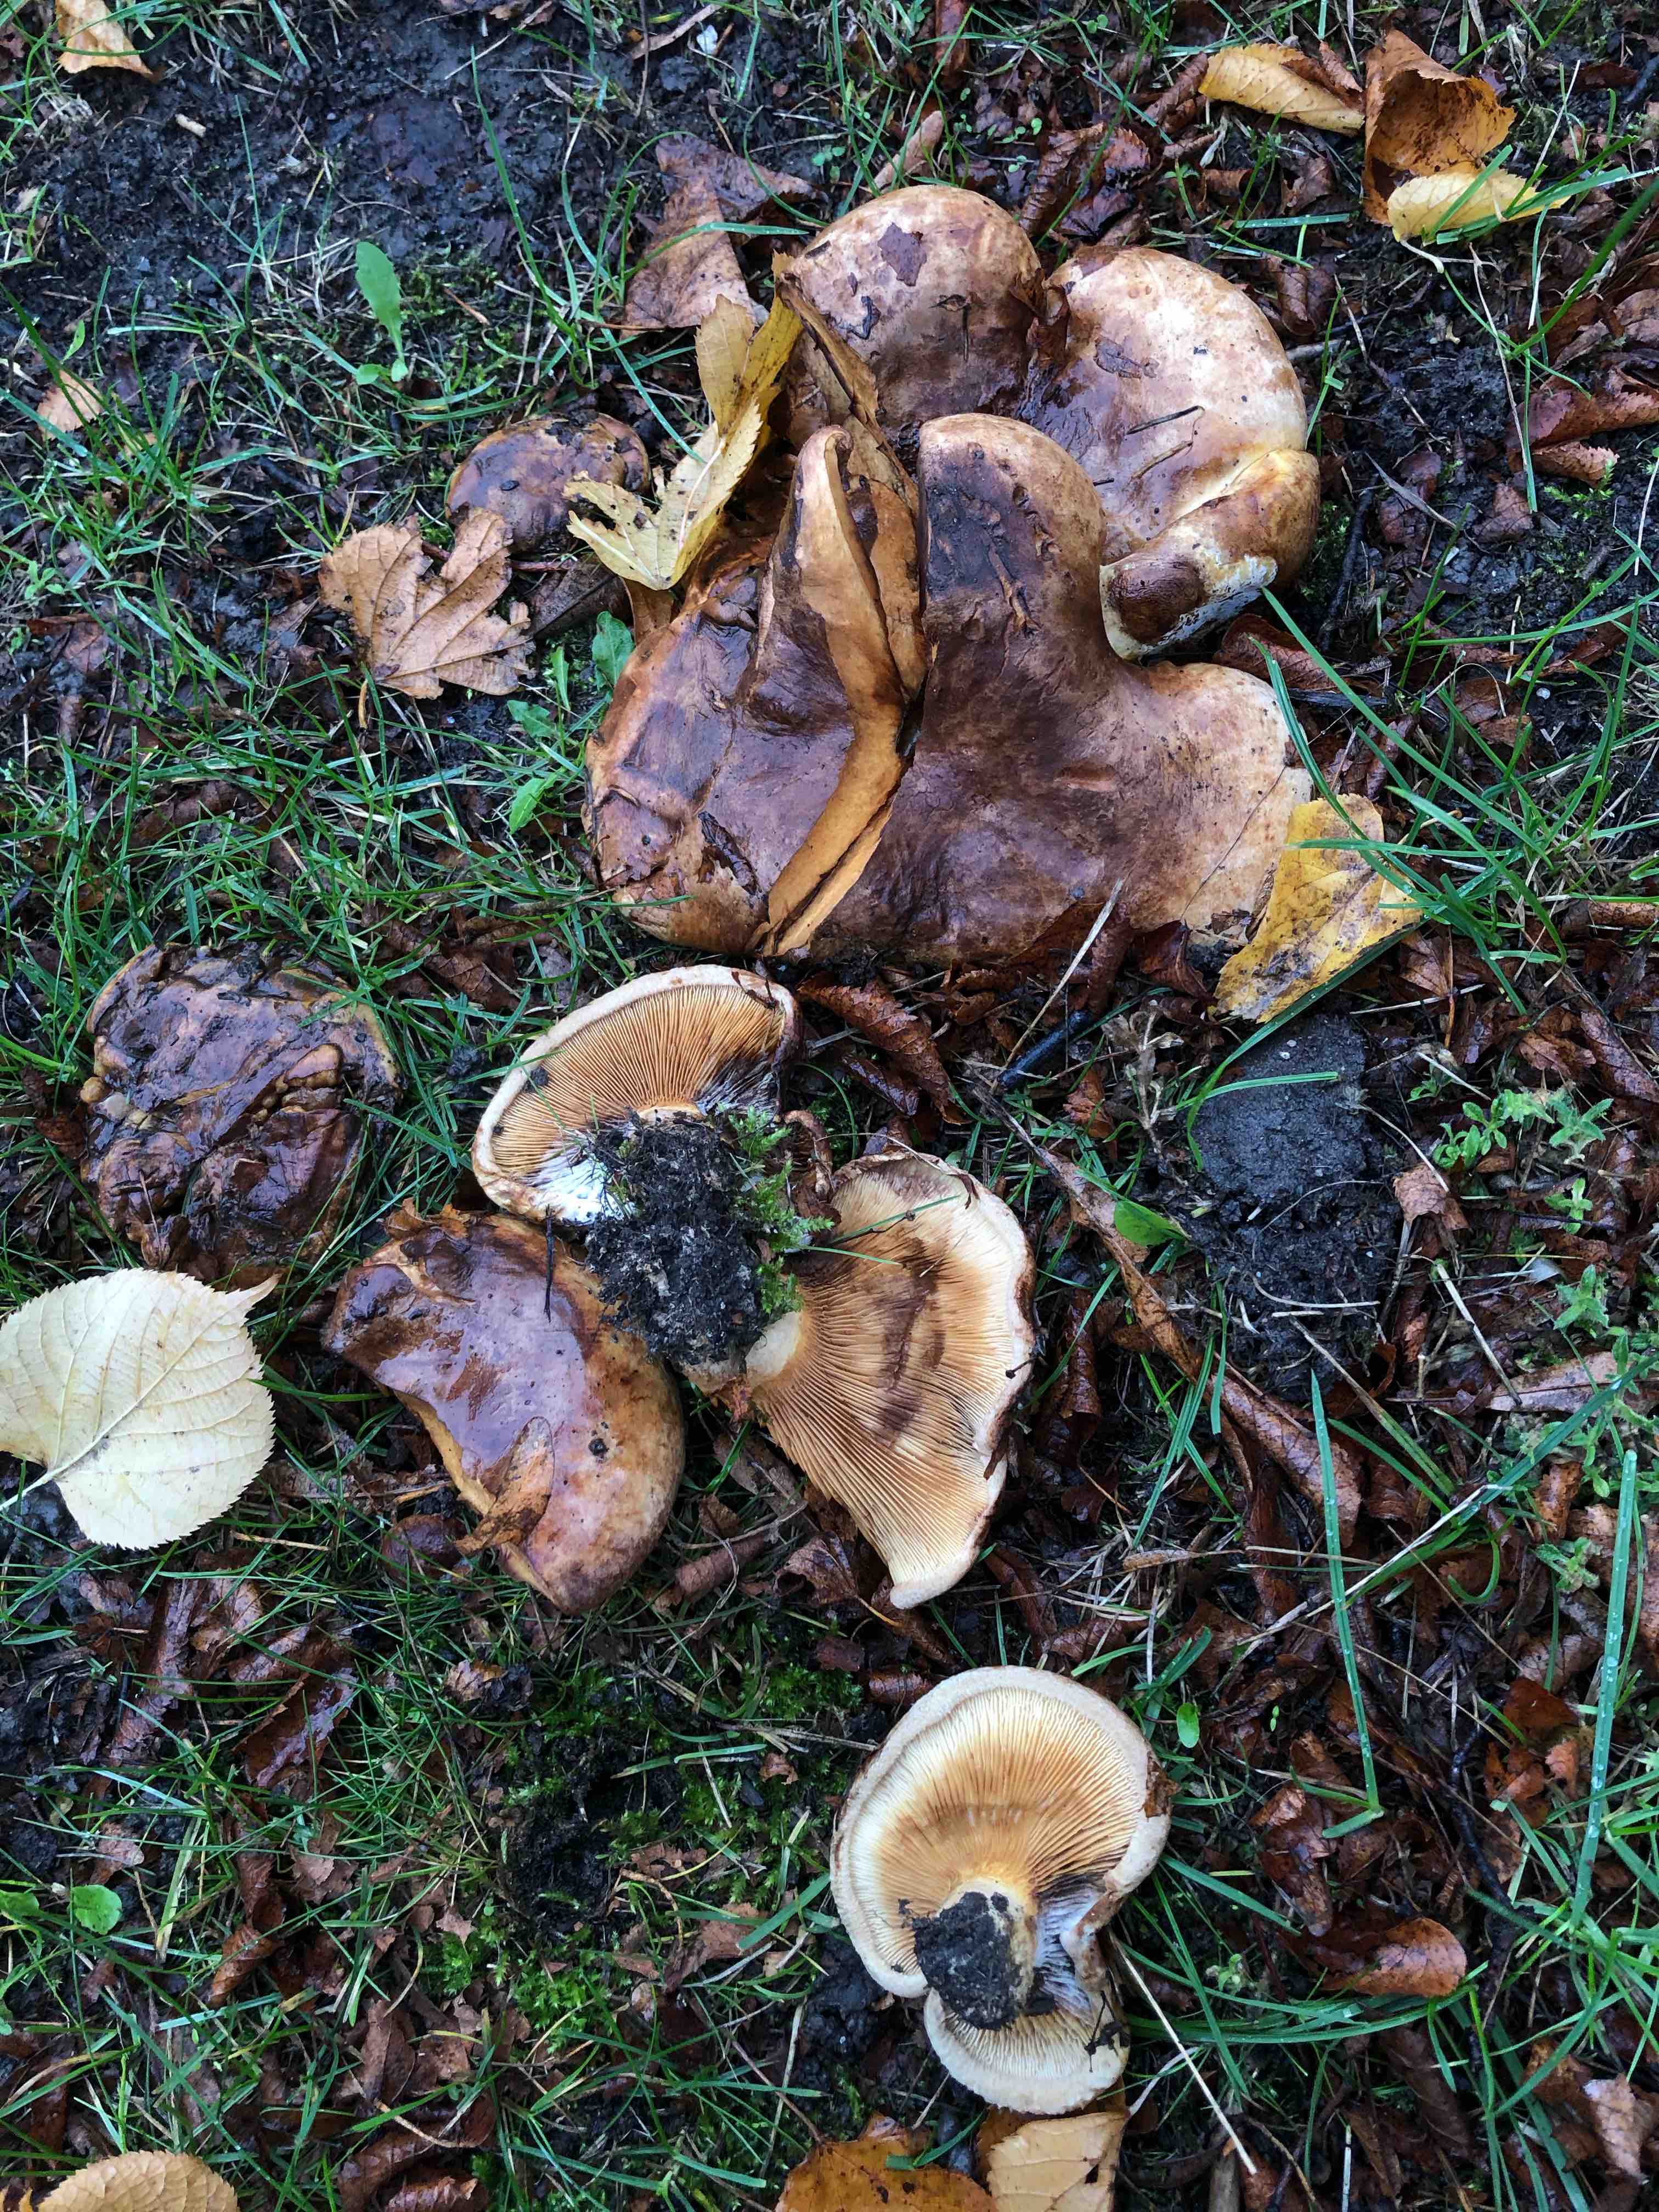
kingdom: Fungi
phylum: Basidiomycota
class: Agaricomycetes
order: Boletales
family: Paxillaceae
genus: Paxillus
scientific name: Paxillus
